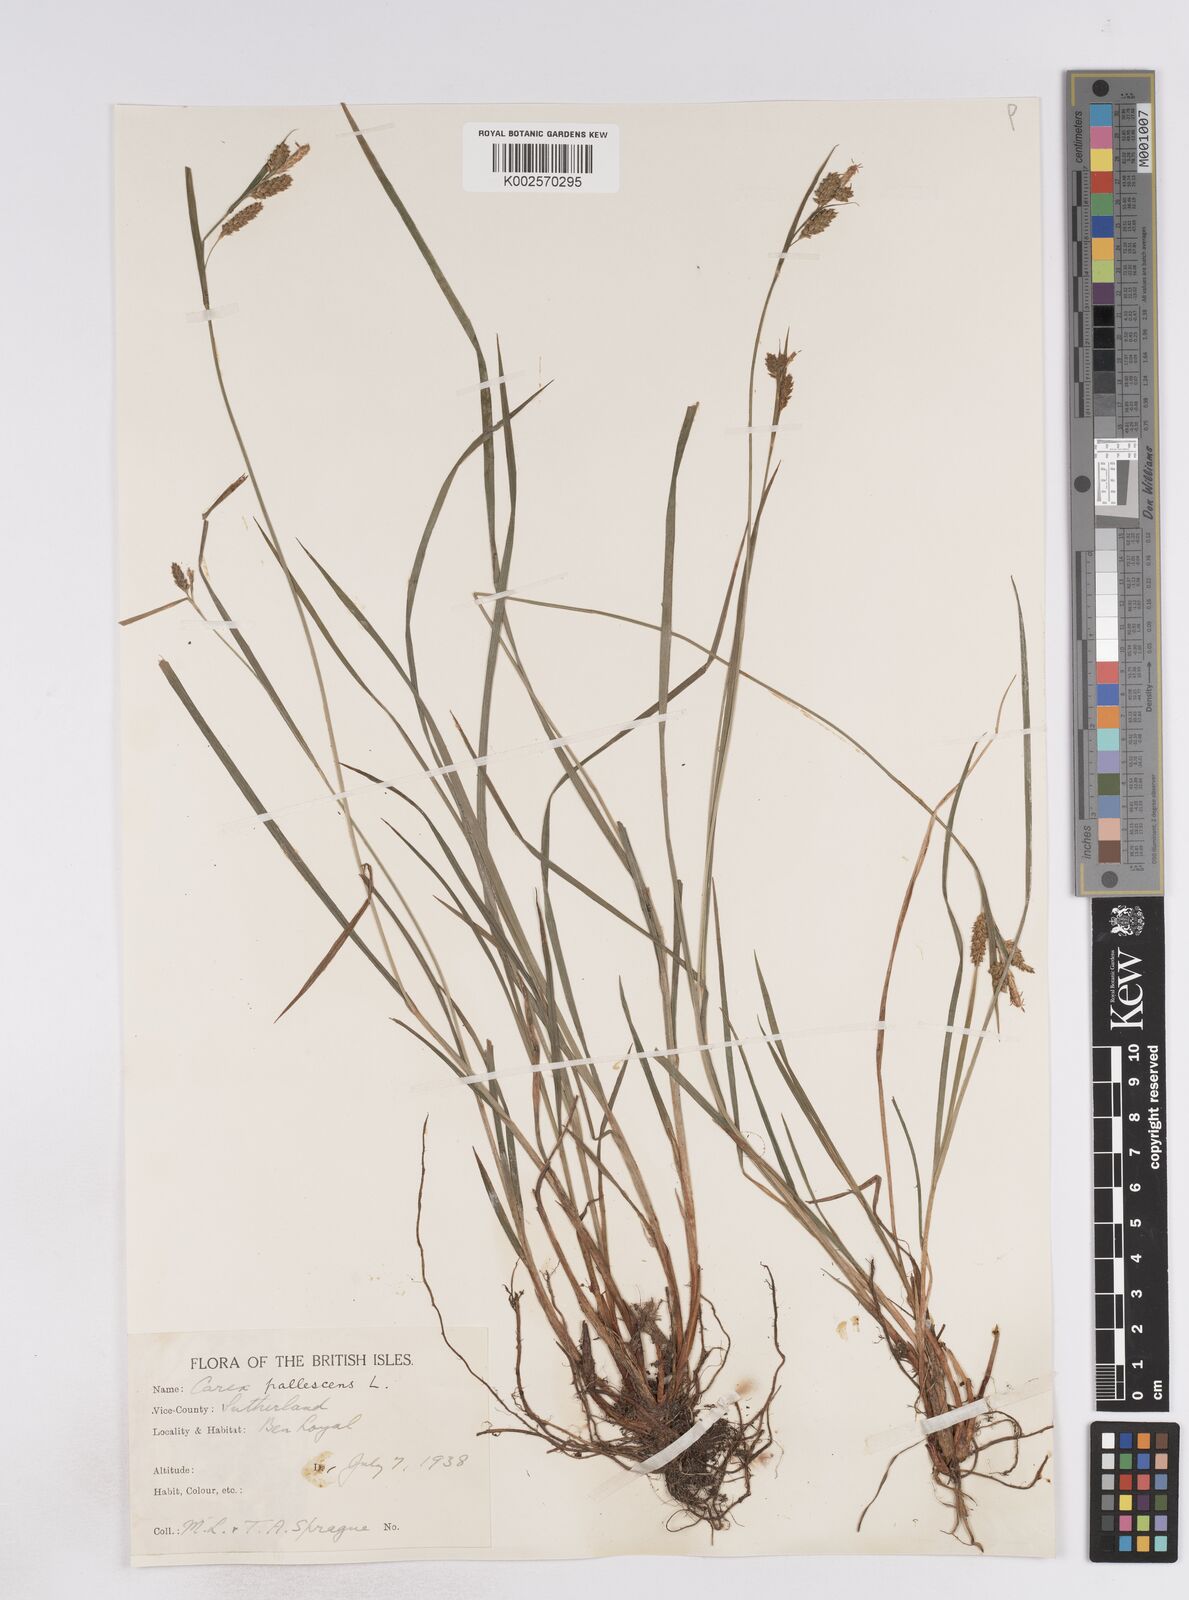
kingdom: Plantae
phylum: Tracheophyta
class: Liliopsida
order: Poales
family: Cyperaceae
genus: Carex
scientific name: Carex pallescens
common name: Pale sedge
